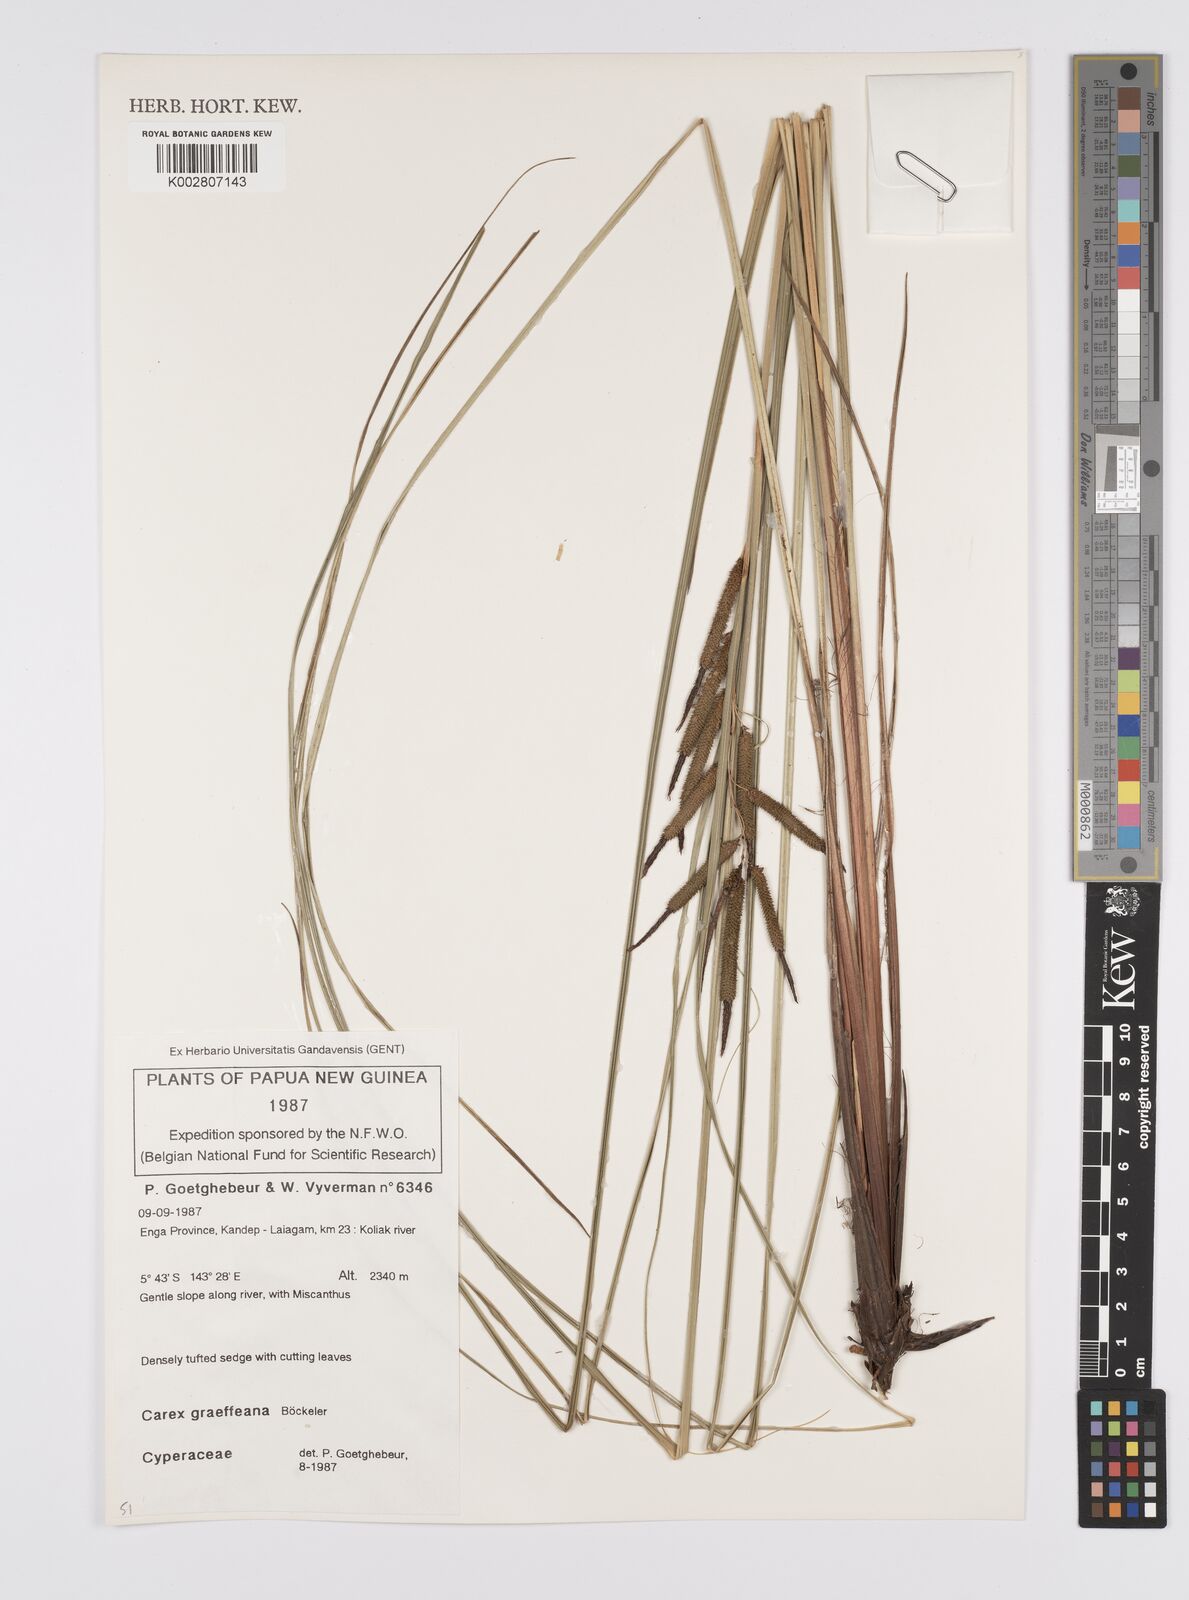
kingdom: Plantae
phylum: Tracheophyta
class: Liliopsida
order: Poales
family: Cyperaceae
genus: Carex
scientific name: Carex graeffeana
